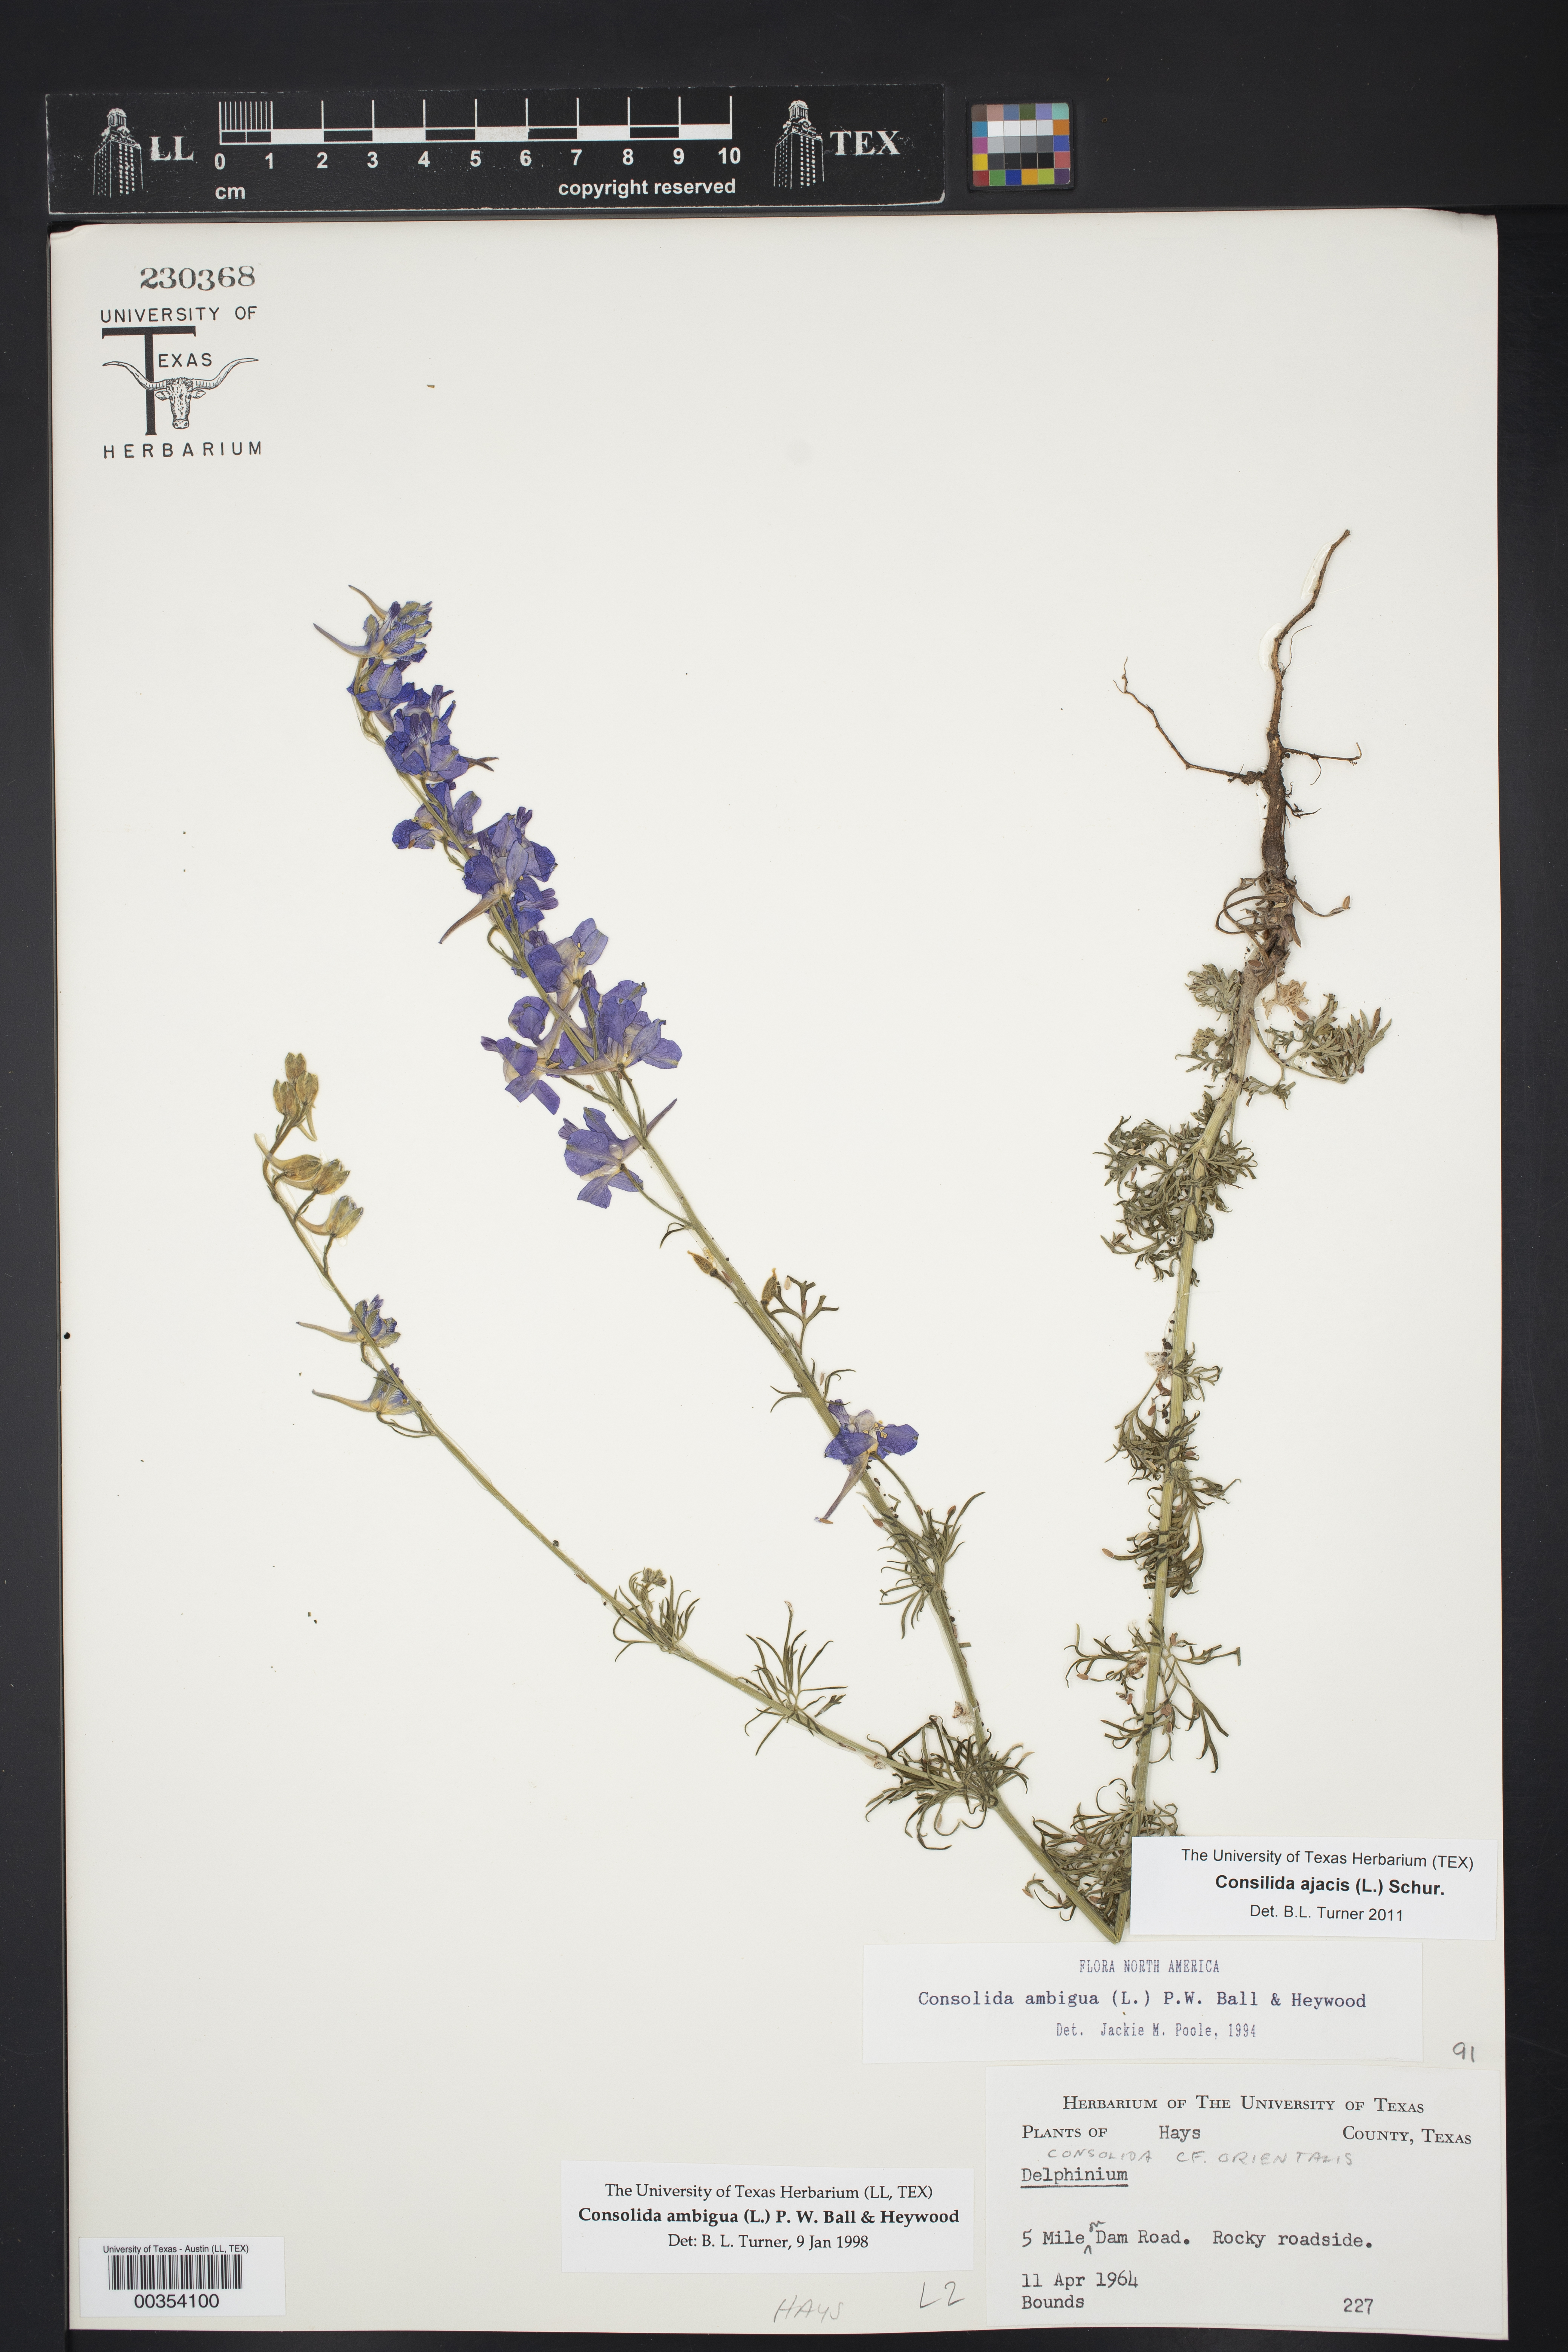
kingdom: Plantae
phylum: Tracheophyta
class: Magnoliopsida
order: Ranunculales
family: Ranunculaceae
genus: Delphinium
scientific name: Delphinium ajacis
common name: Doubtful knight's-spur
